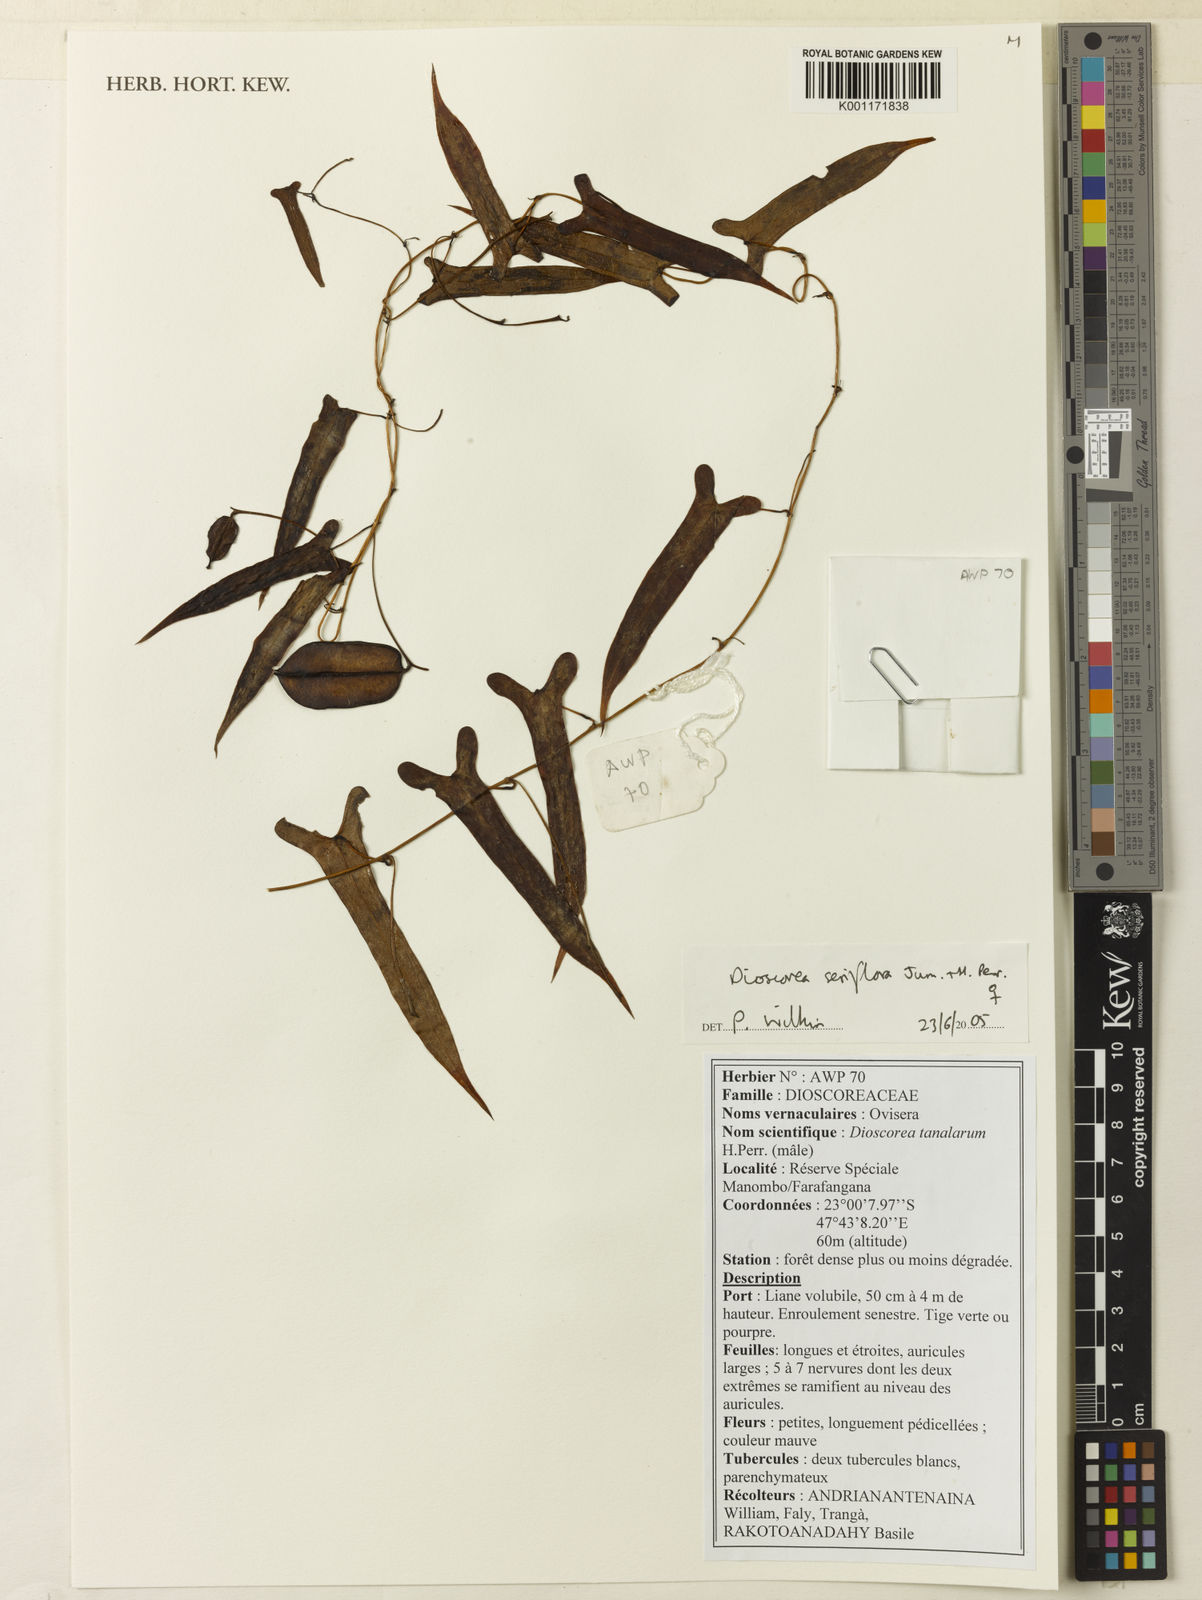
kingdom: Plantae
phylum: Tracheophyta
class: Liliopsida
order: Dioscoreales
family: Dioscoreaceae
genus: Dioscorea
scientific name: Dioscorea seriflora
